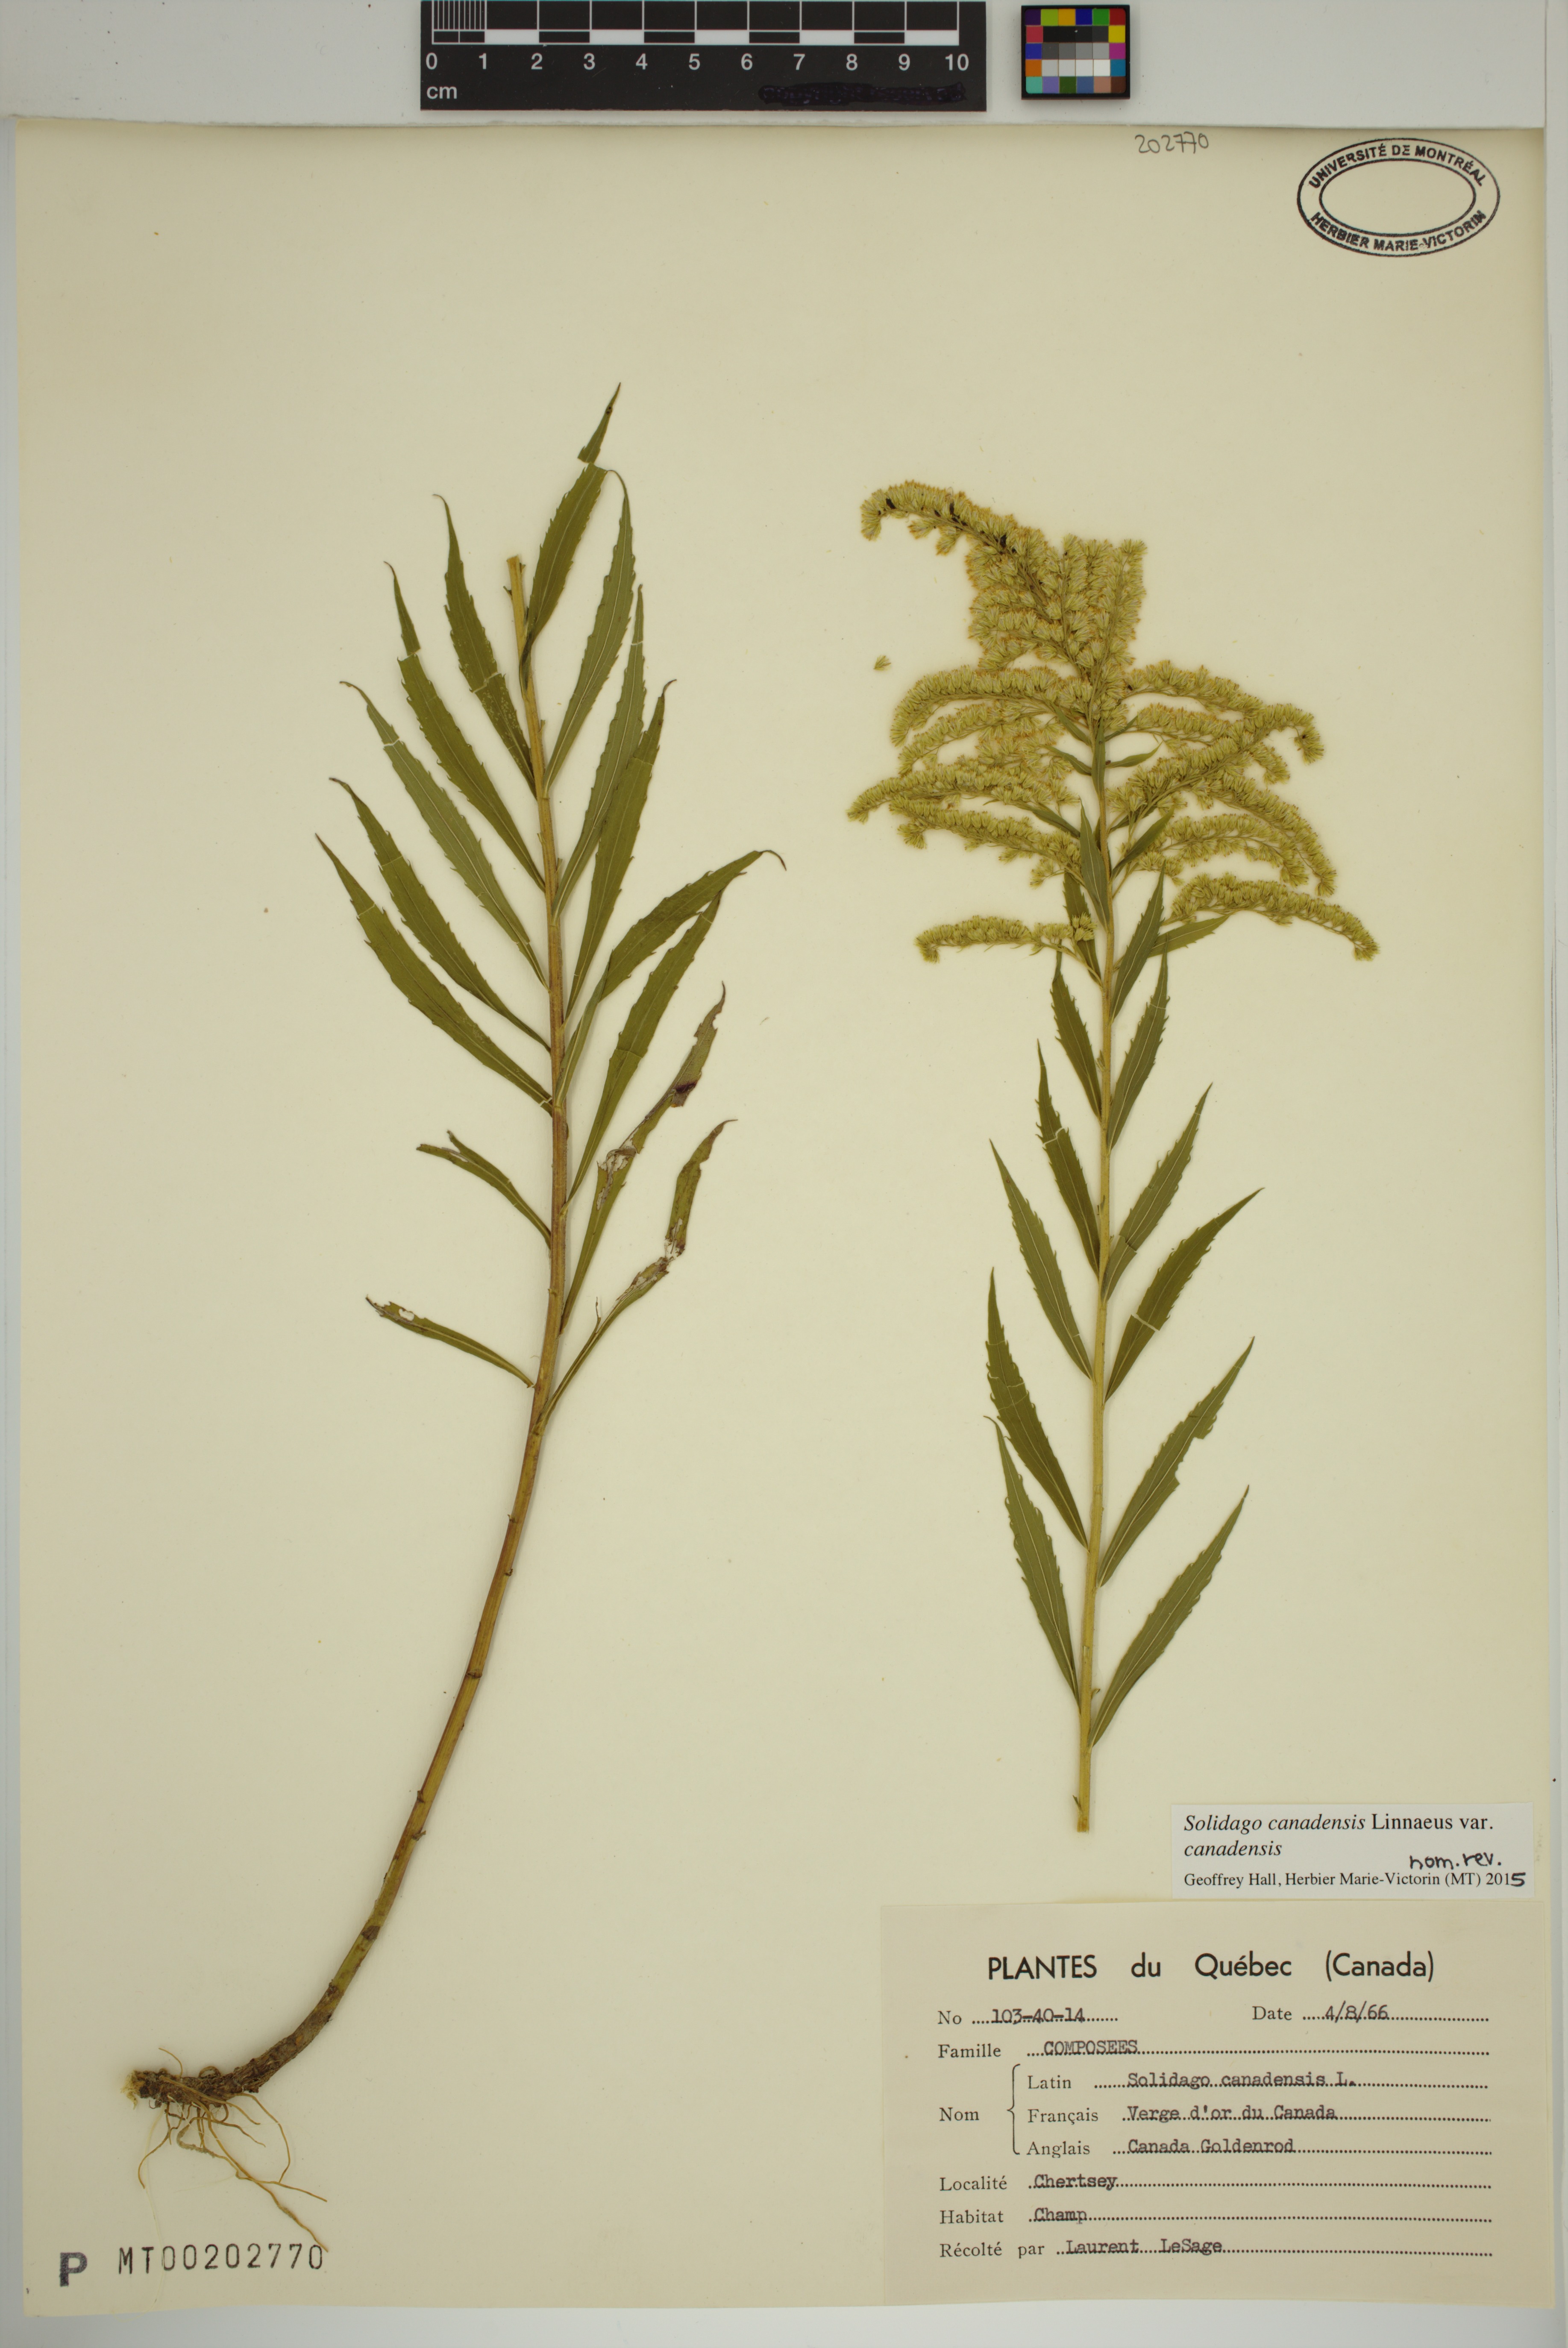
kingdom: Plantae
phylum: Tracheophyta
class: Magnoliopsida
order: Asterales
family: Asteraceae
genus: Solidago
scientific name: Solidago canadensis
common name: Canada goldenrod
